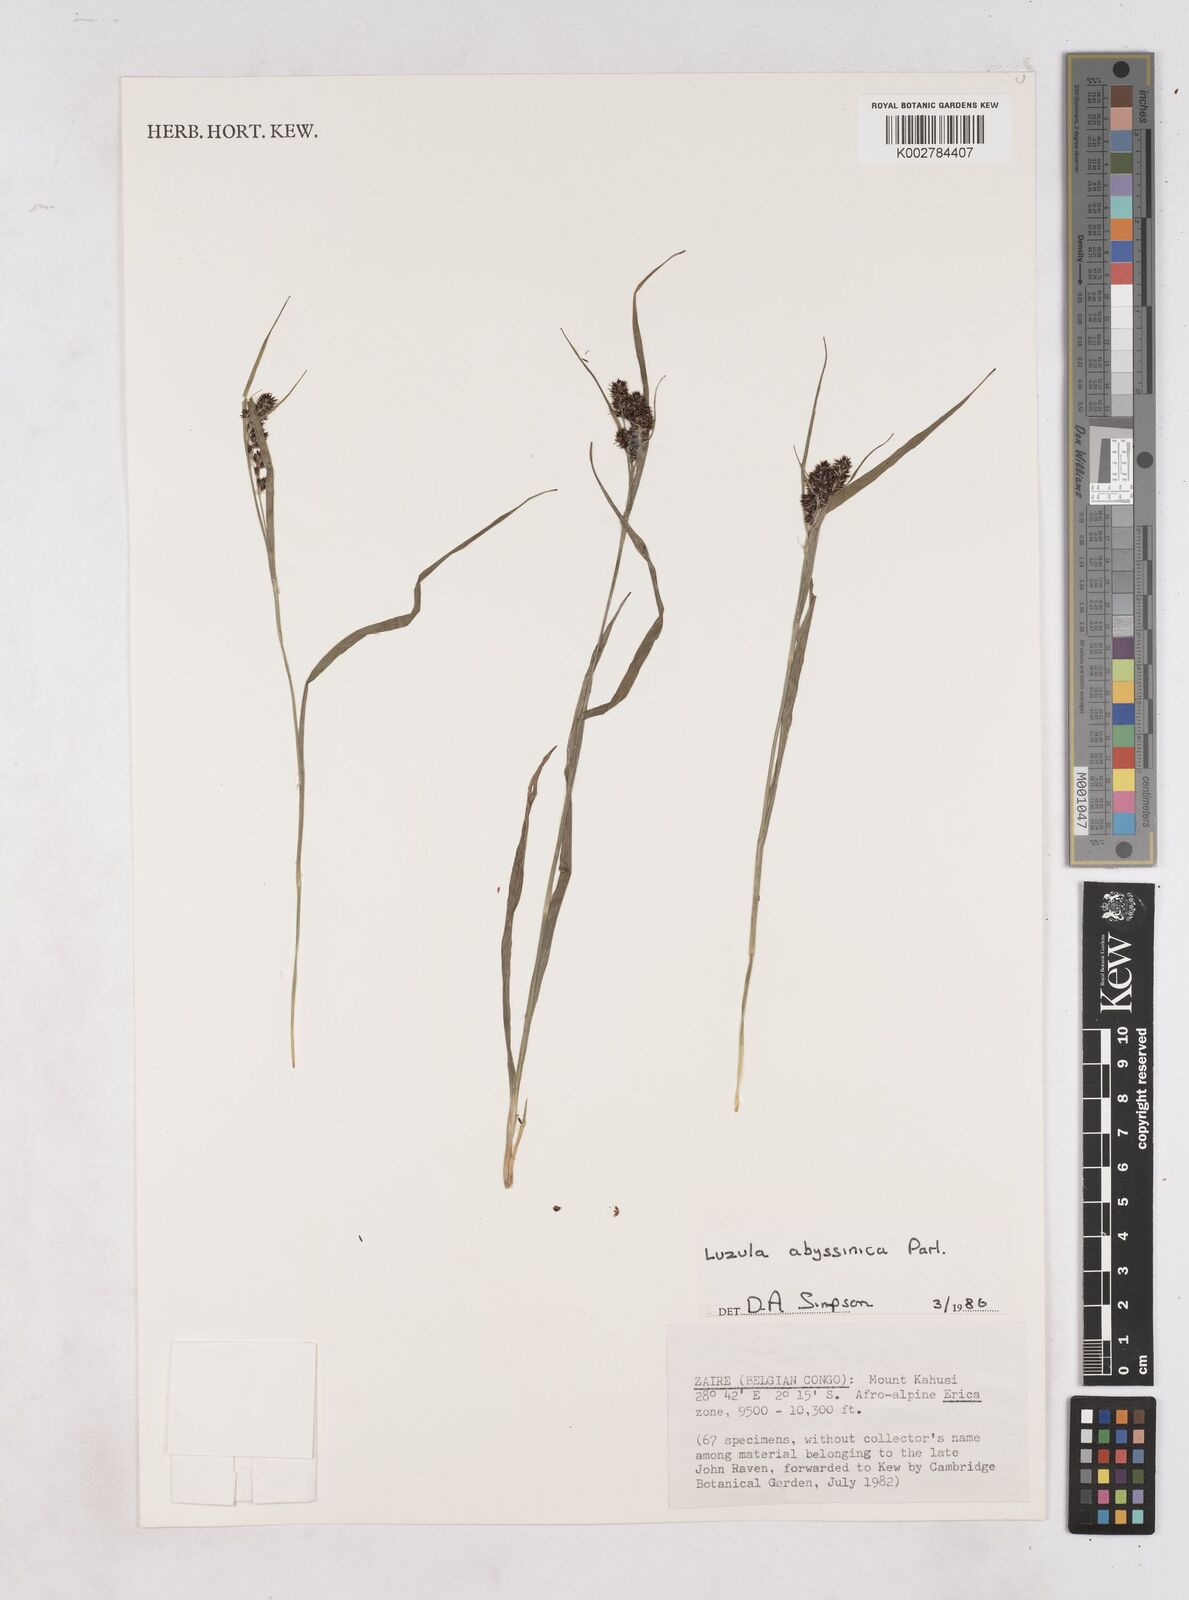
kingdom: Plantae
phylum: Tracheophyta
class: Liliopsida
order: Poales
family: Juncaceae
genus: Luzula
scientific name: Luzula abyssinica
